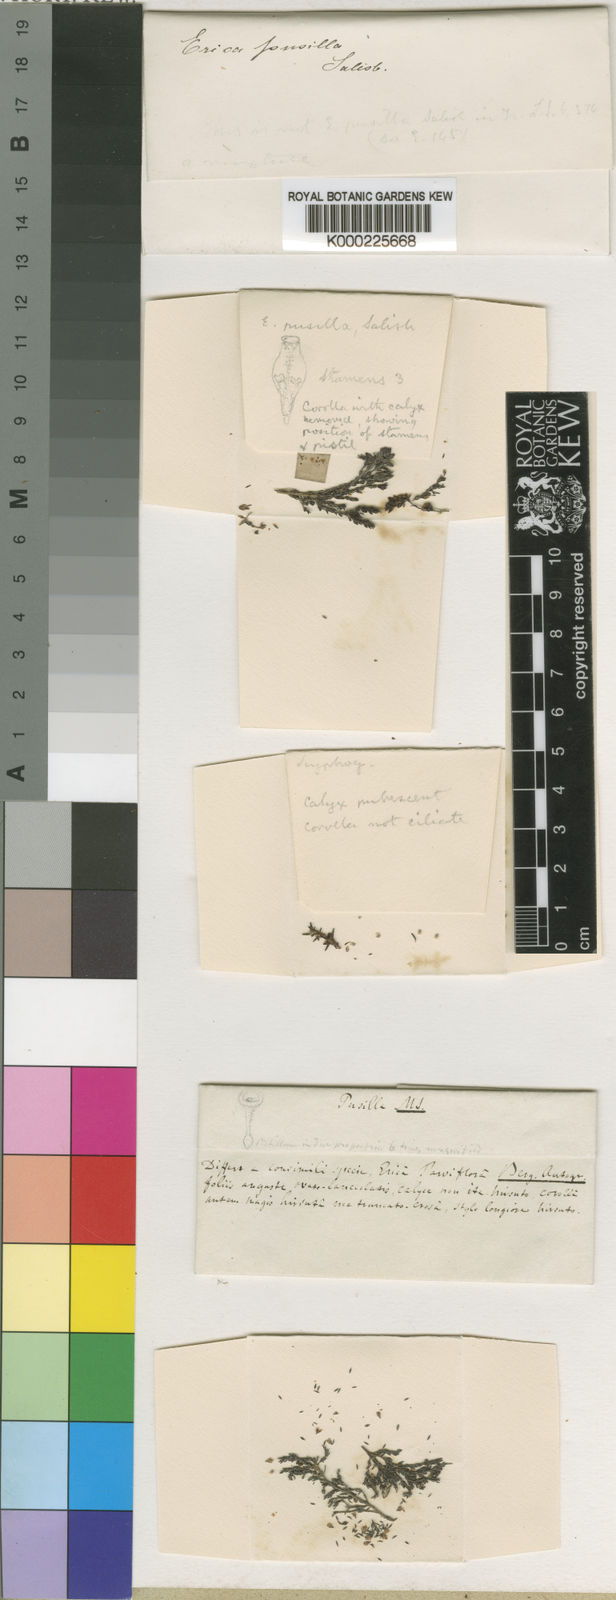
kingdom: Plantae
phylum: Tracheophyta
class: Magnoliopsida
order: Ericales
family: Ericaceae
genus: Scyphogyne
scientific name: Scyphogyne
